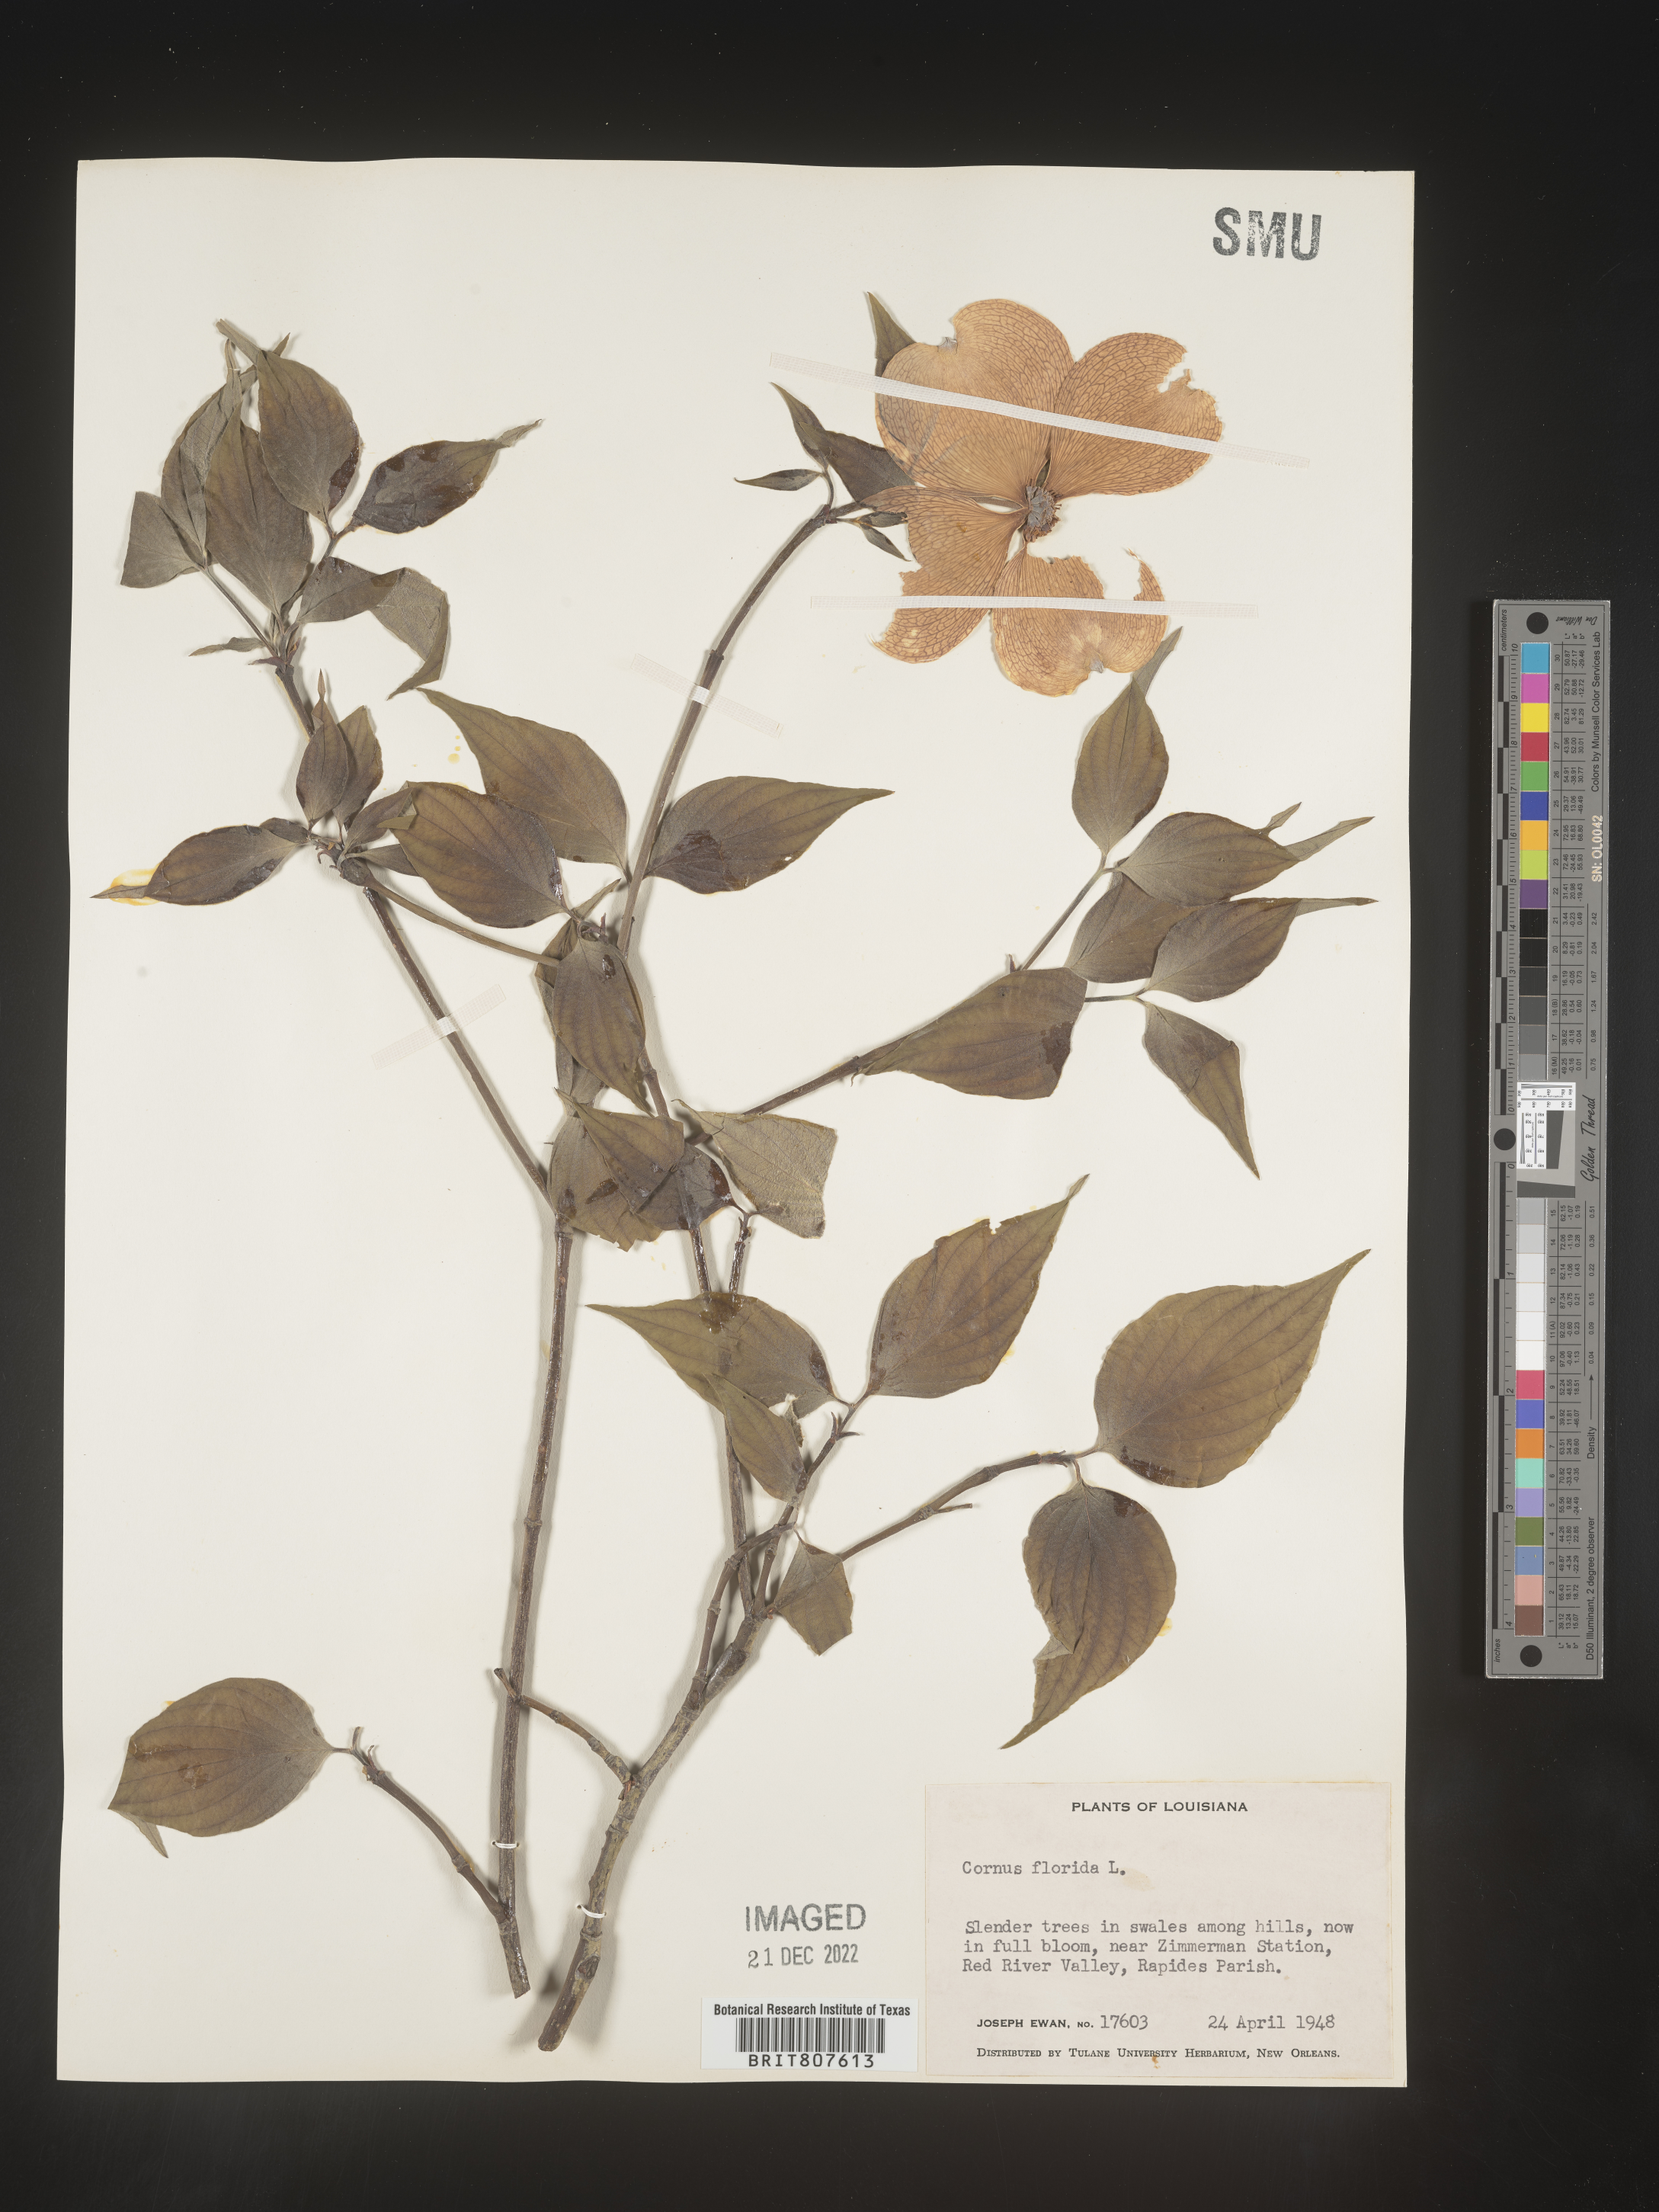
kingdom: Plantae
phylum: Tracheophyta
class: Magnoliopsida
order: Cornales
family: Cornaceae
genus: Cornus
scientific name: Cornus florida
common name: Flowering dogwood
